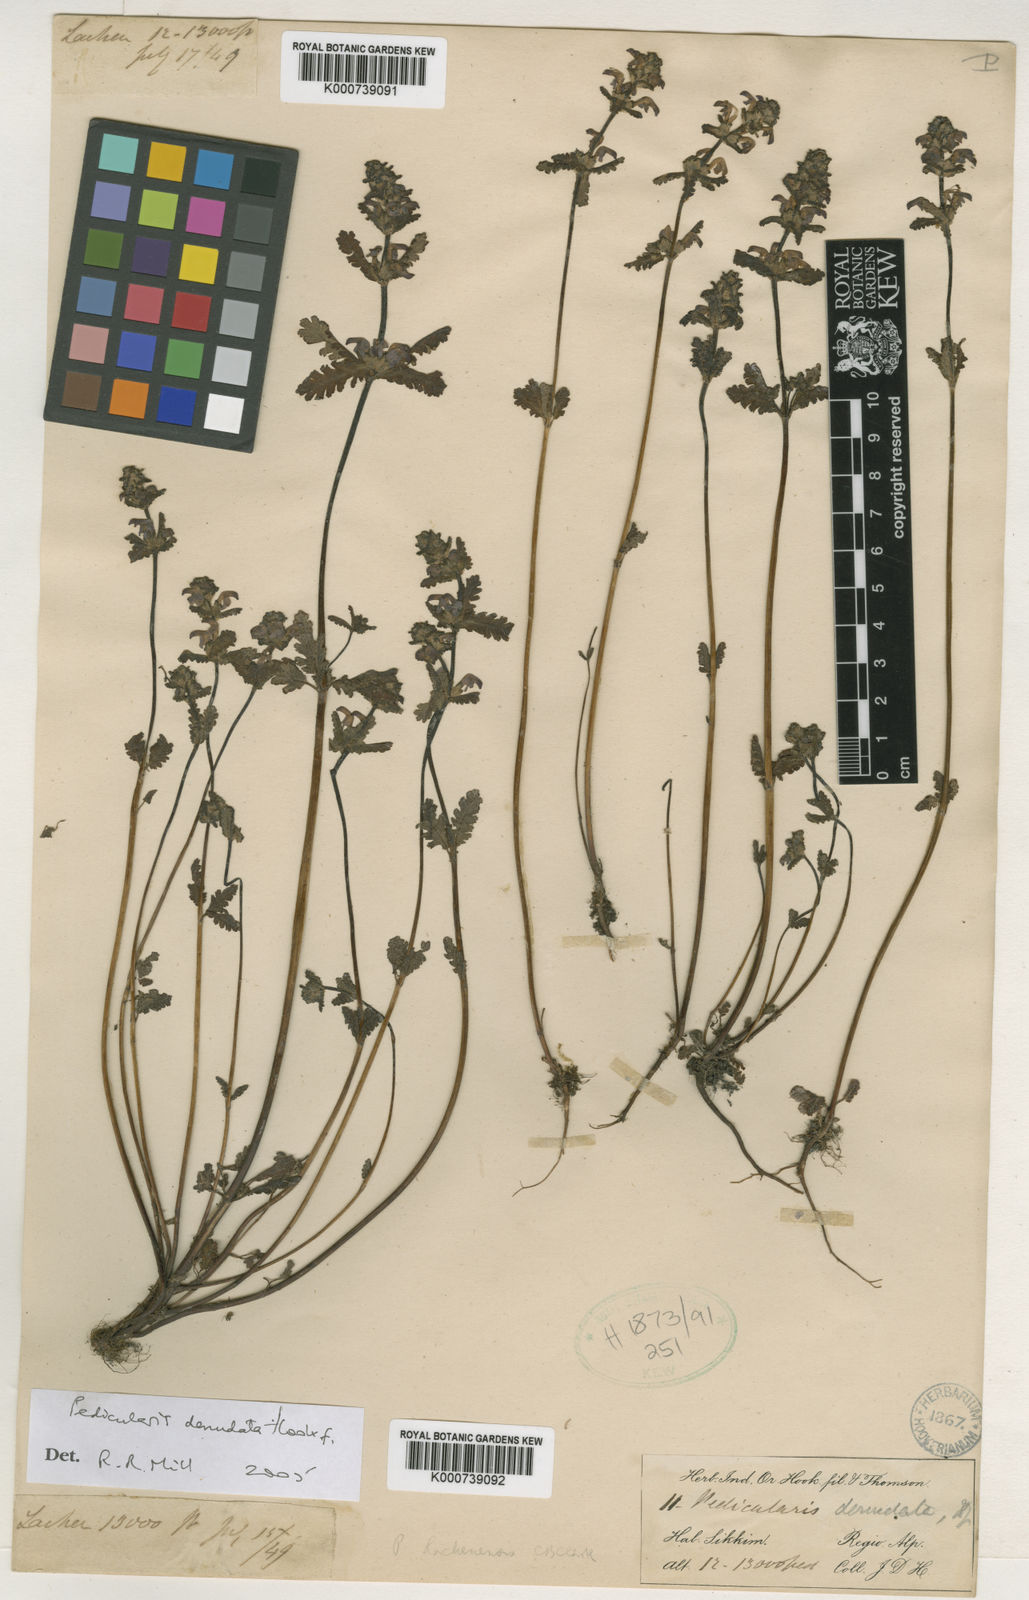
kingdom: Plantae
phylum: Tracheophyta
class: Magnoliopsida
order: Lamiales
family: Orobanchaceae
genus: Pedicularis
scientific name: Pedicularis denudata
